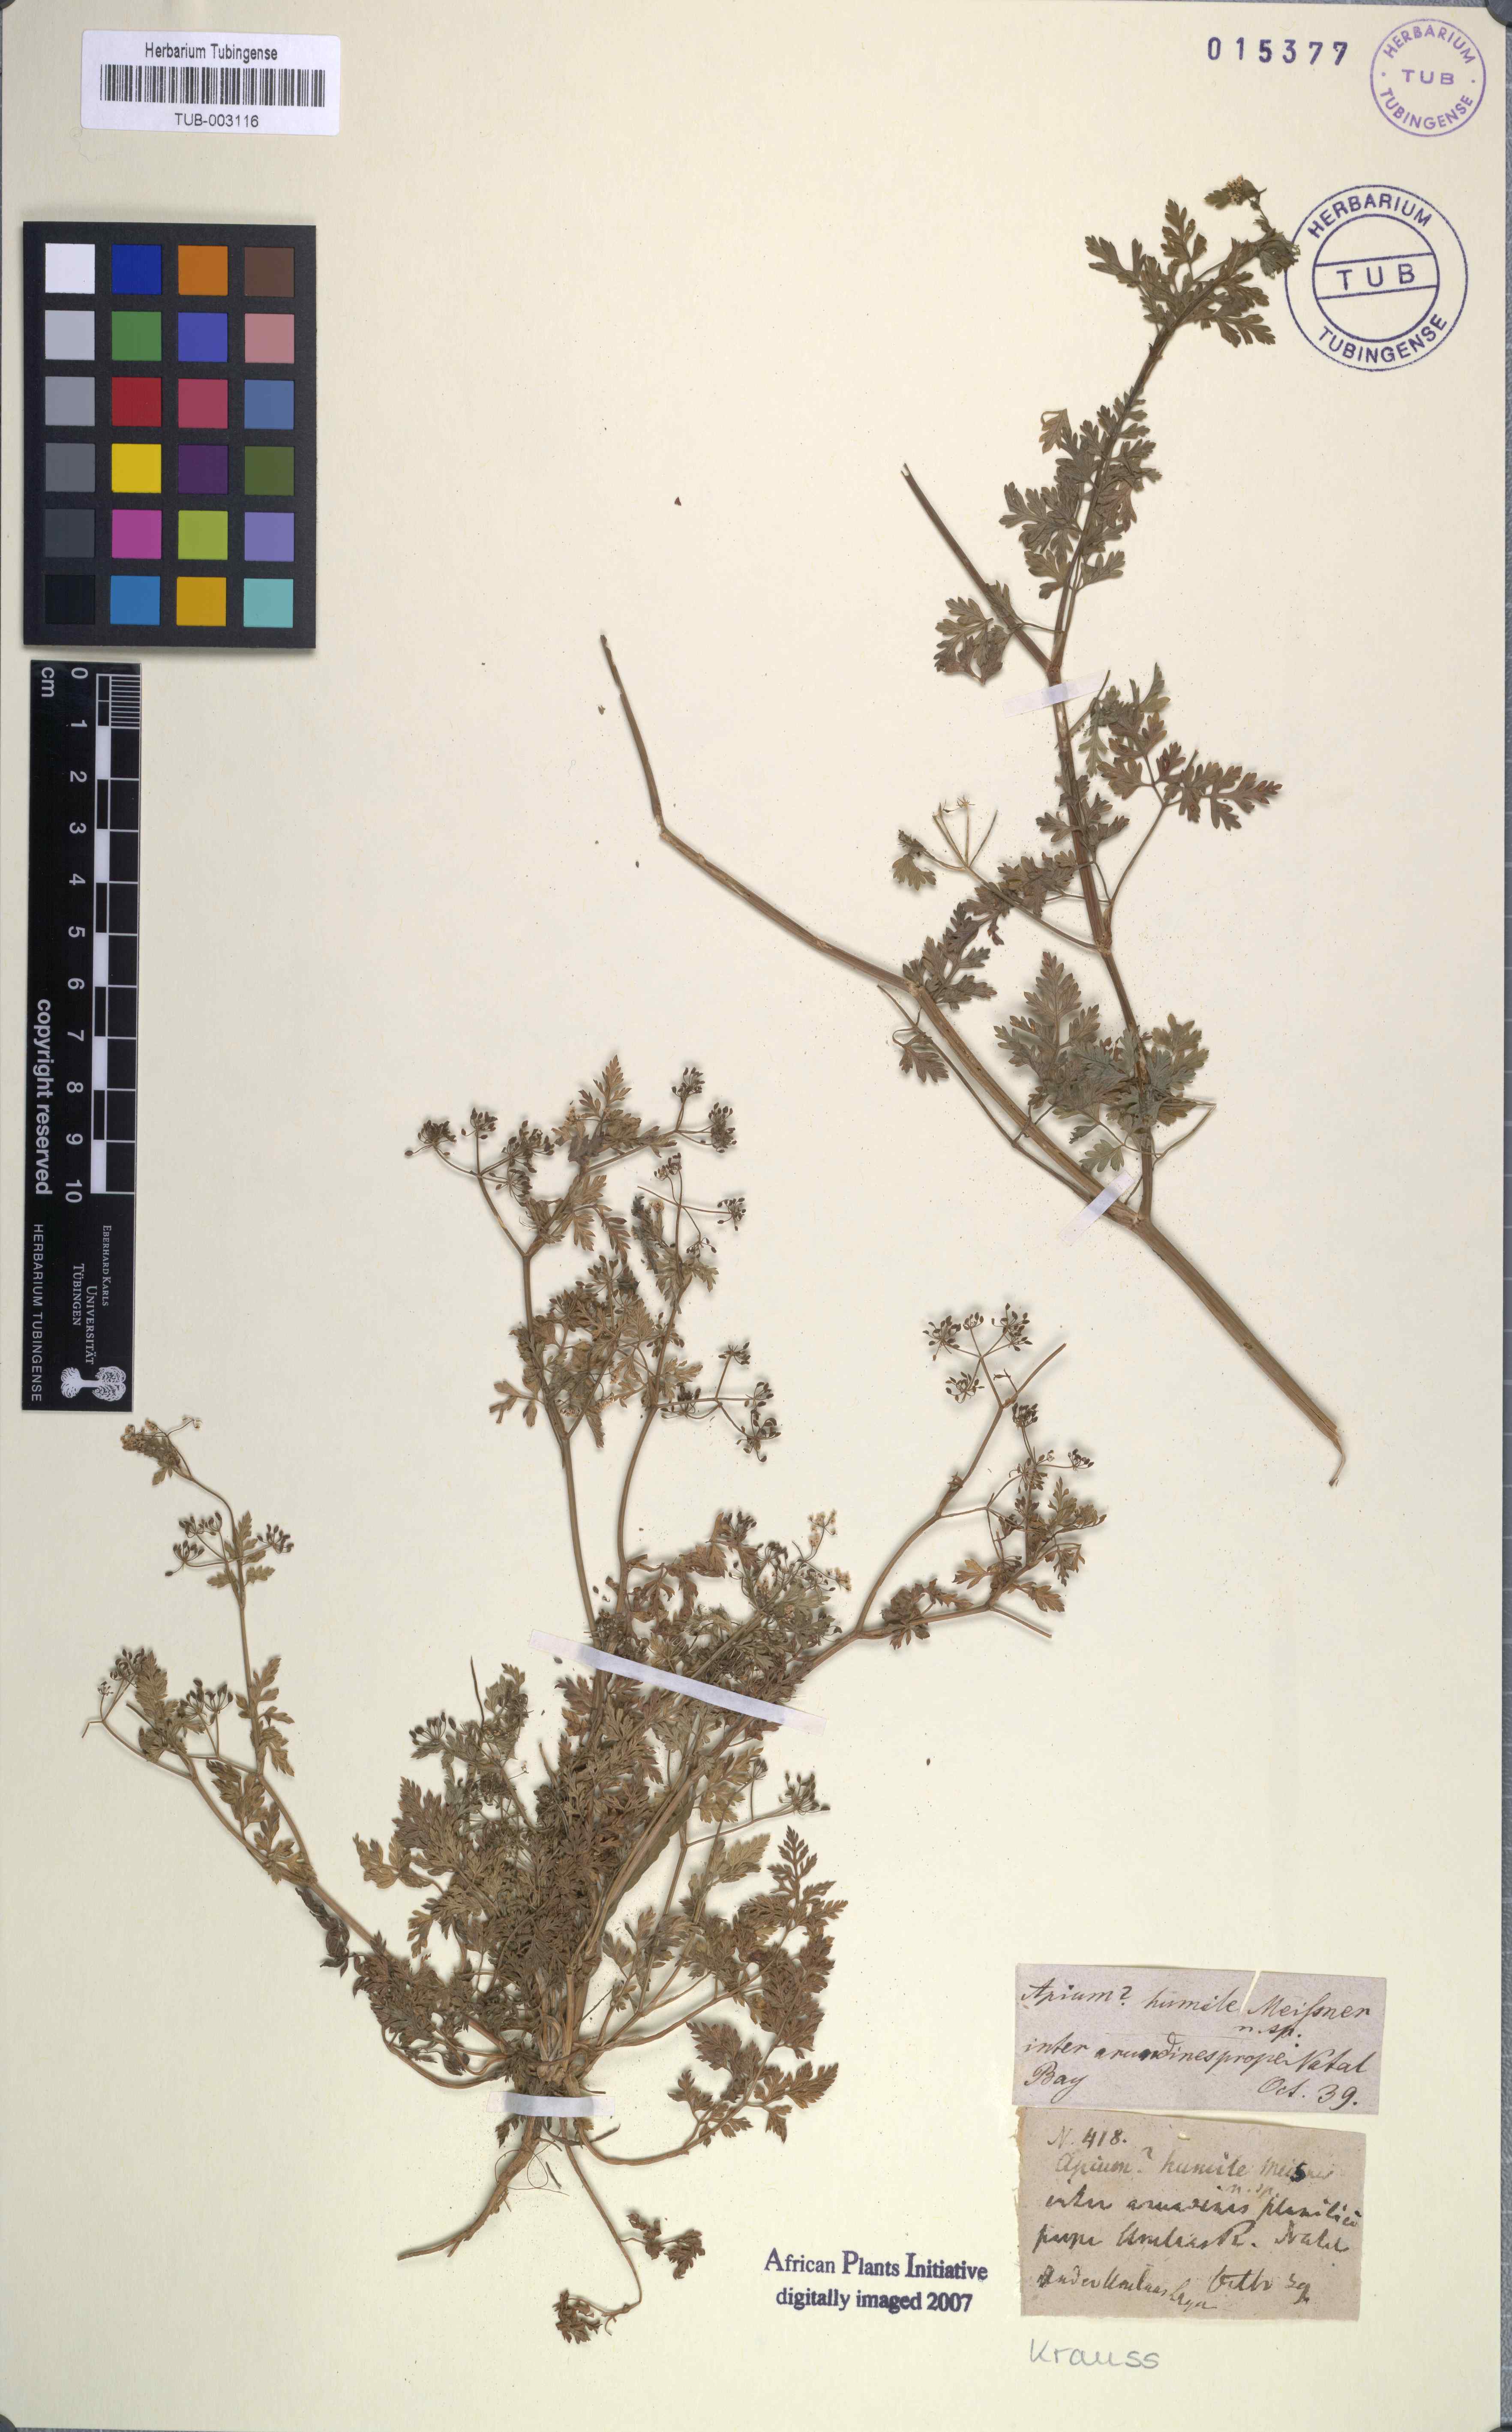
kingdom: Plantae
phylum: Tracheophyta
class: Magnoliopsida
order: Apiales
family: Apiaceae
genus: Dasispermum
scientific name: Dasispermum humile
